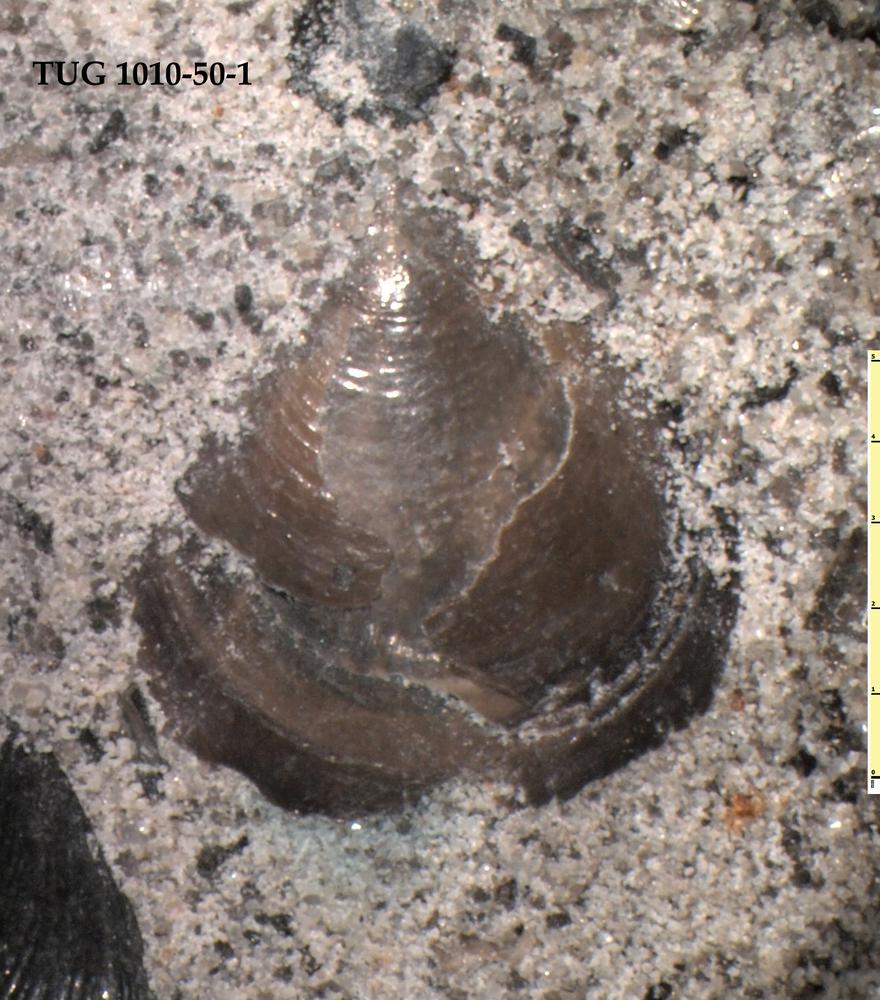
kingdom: Animalia
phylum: Porifera
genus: Ungula
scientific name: Ungula ingricus
